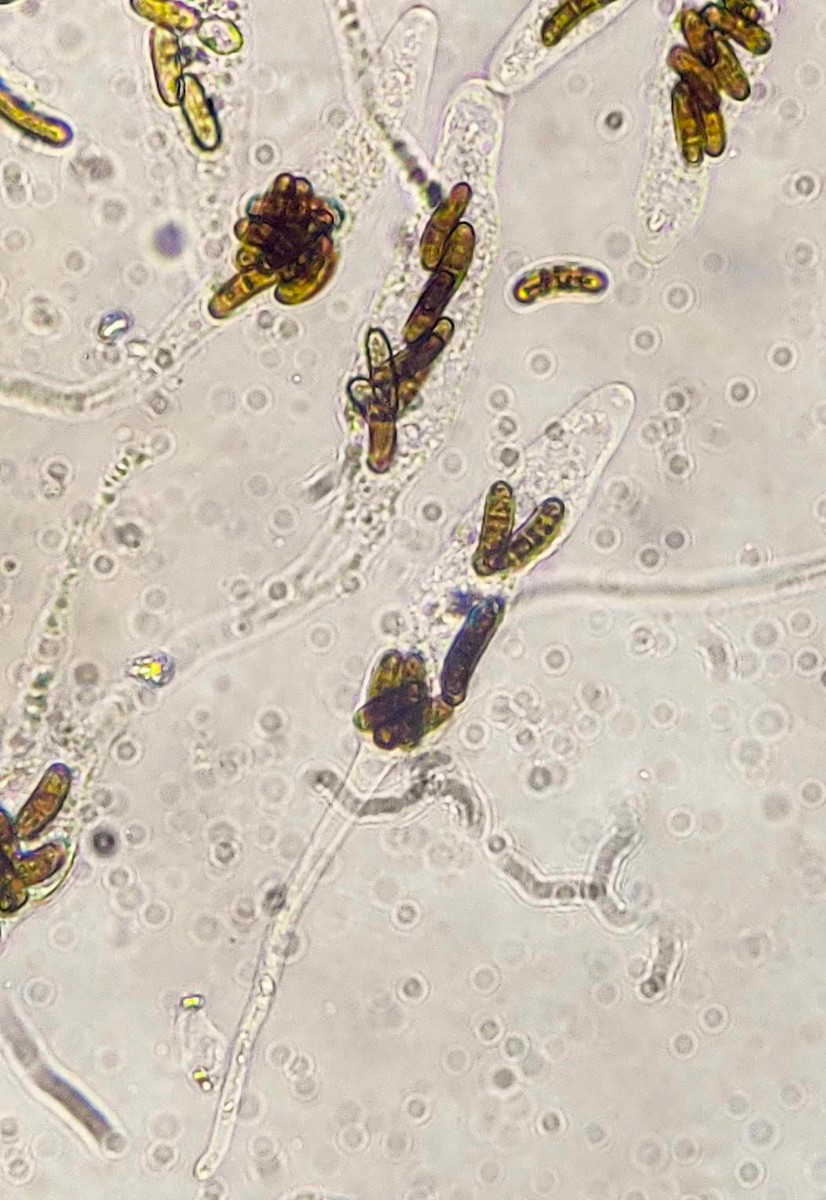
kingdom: Fungi
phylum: Ascomycota
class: Sordariomycetes
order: Xylariales
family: Diatrypaceae
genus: Cryptosphaeria
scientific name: Cryptosphaeria eunomia
